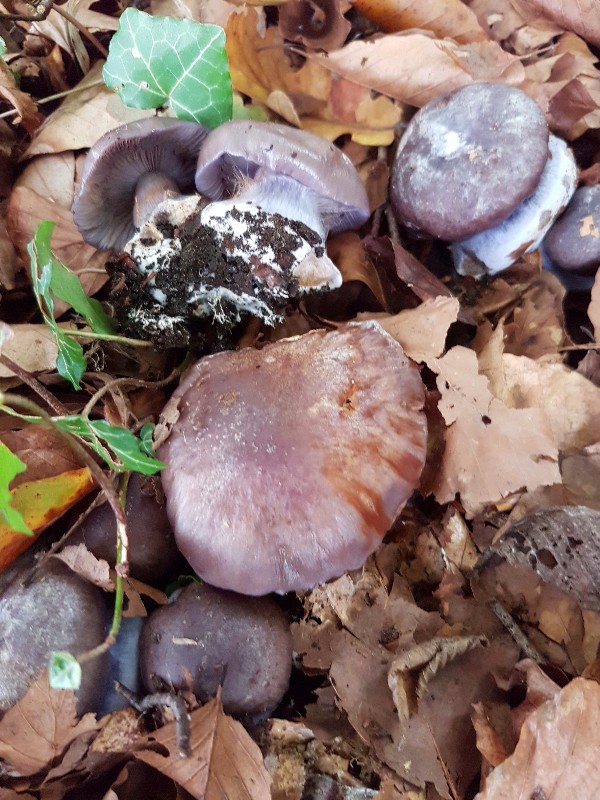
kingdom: Fungi
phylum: Basidiomycota
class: Agaricomycetes
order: Agaricales
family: Cortinariaceae
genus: Phlegmacium
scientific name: Phlegmacium viridocoeruleum
